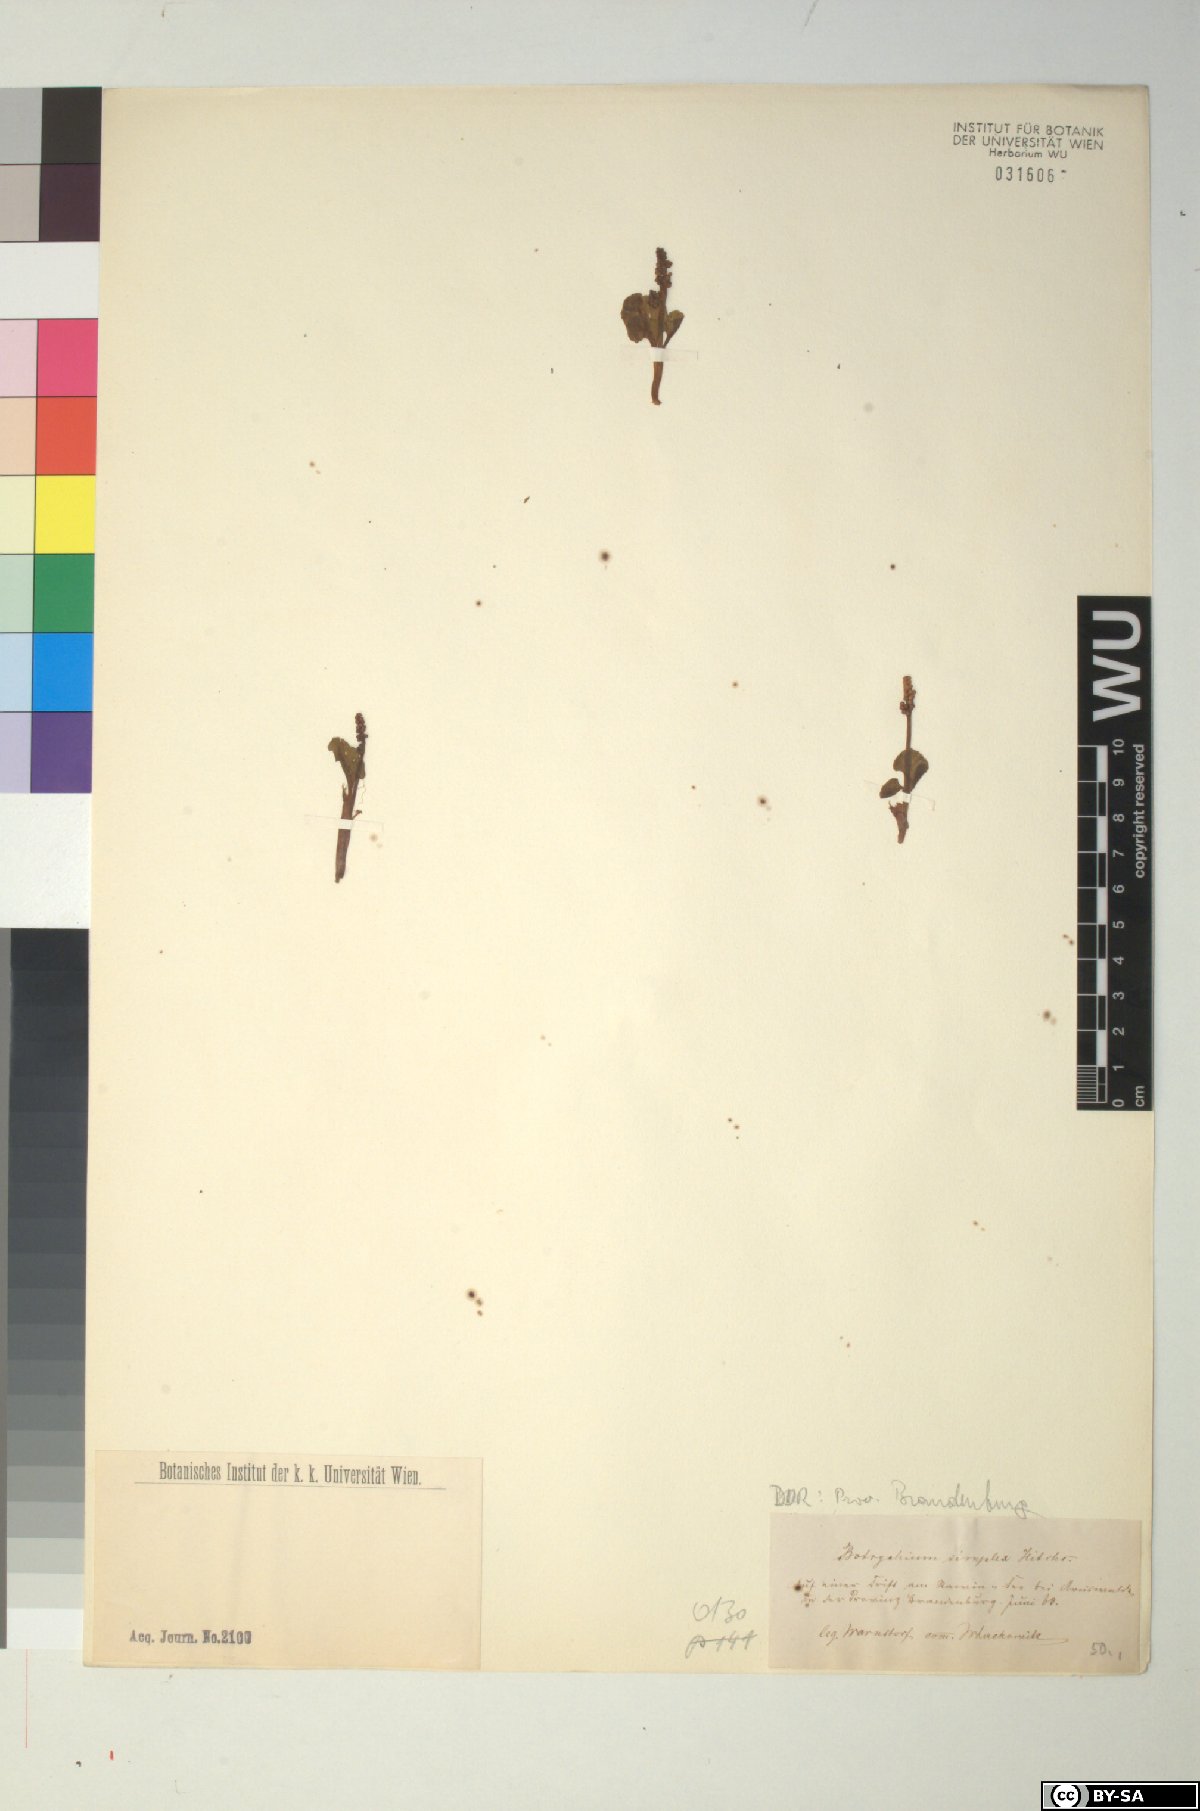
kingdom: Plantae
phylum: Tracheophyta
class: Polypodiopsida
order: Ophioglossales
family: Ophioglossaceae
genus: Botrychium
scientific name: Botrychium simplex
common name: Least moonwort
